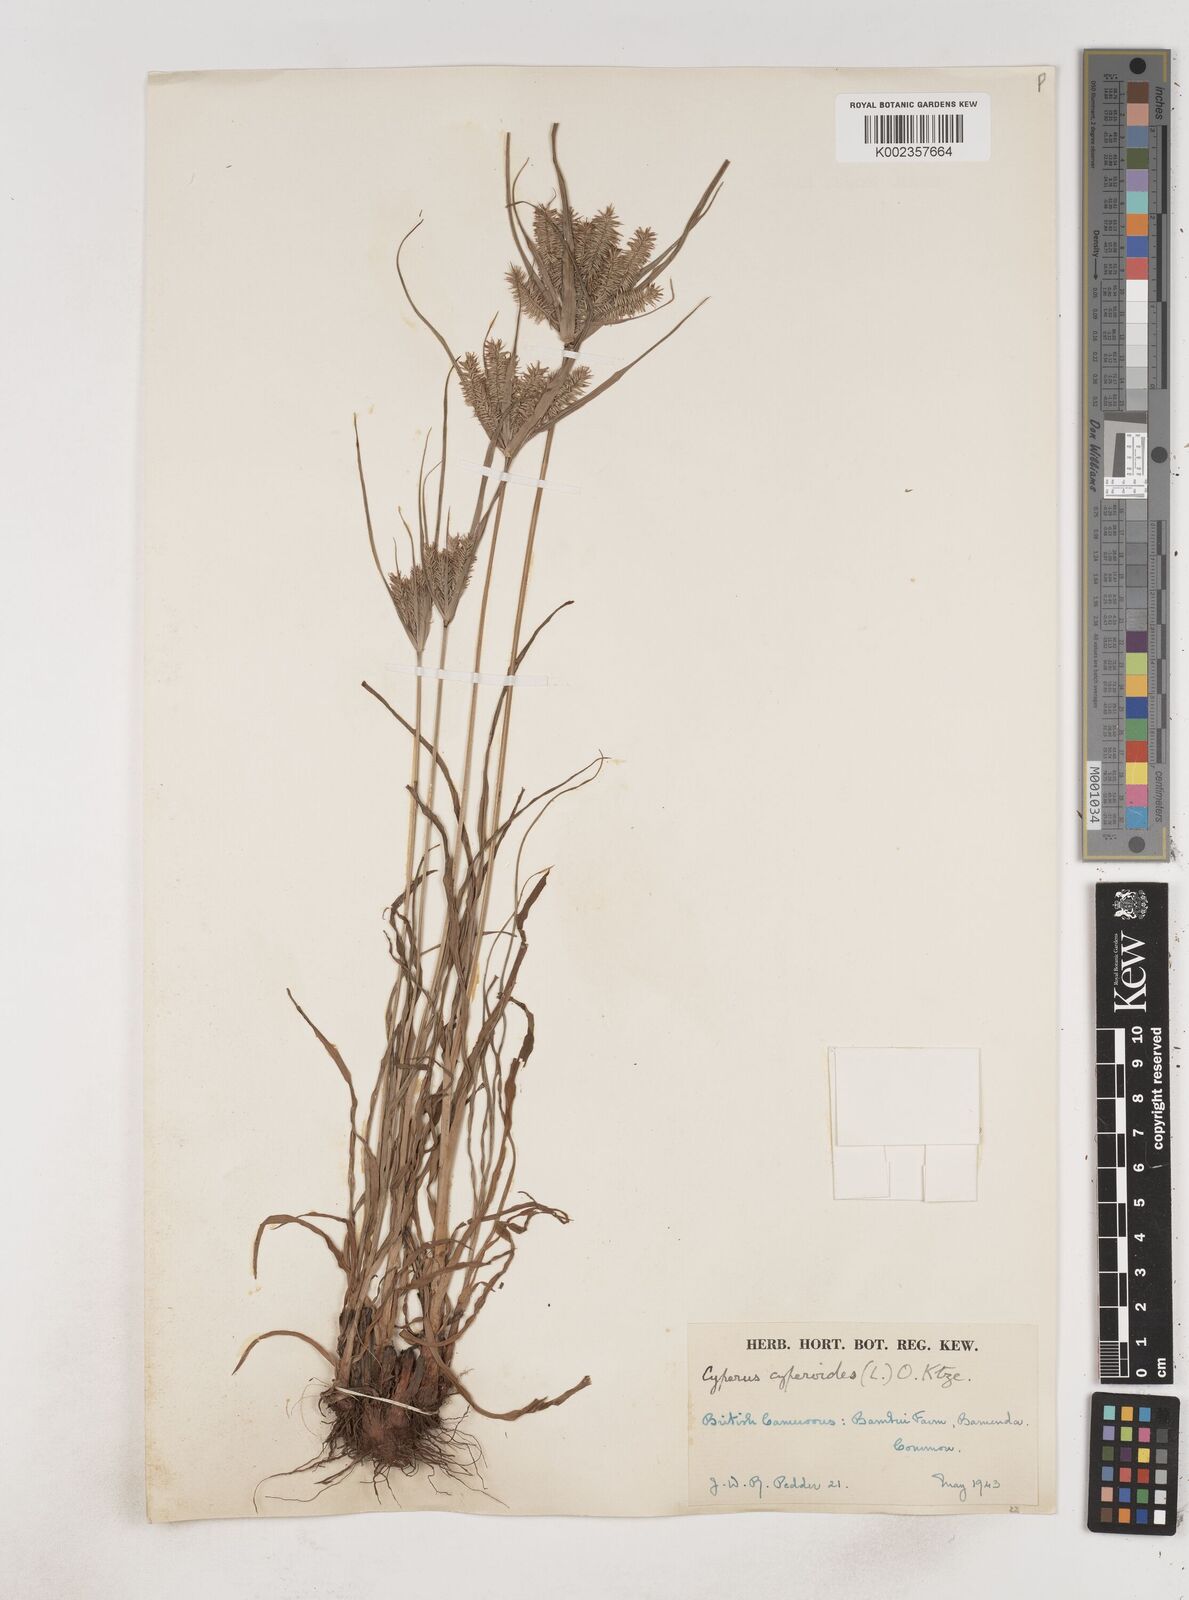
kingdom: Plantae
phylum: Tracheophyta
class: Liliopsida
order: Poales
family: Cyperaceae
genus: Cyperus
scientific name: Cyperus cyperoides
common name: Pacific island flat sedge
